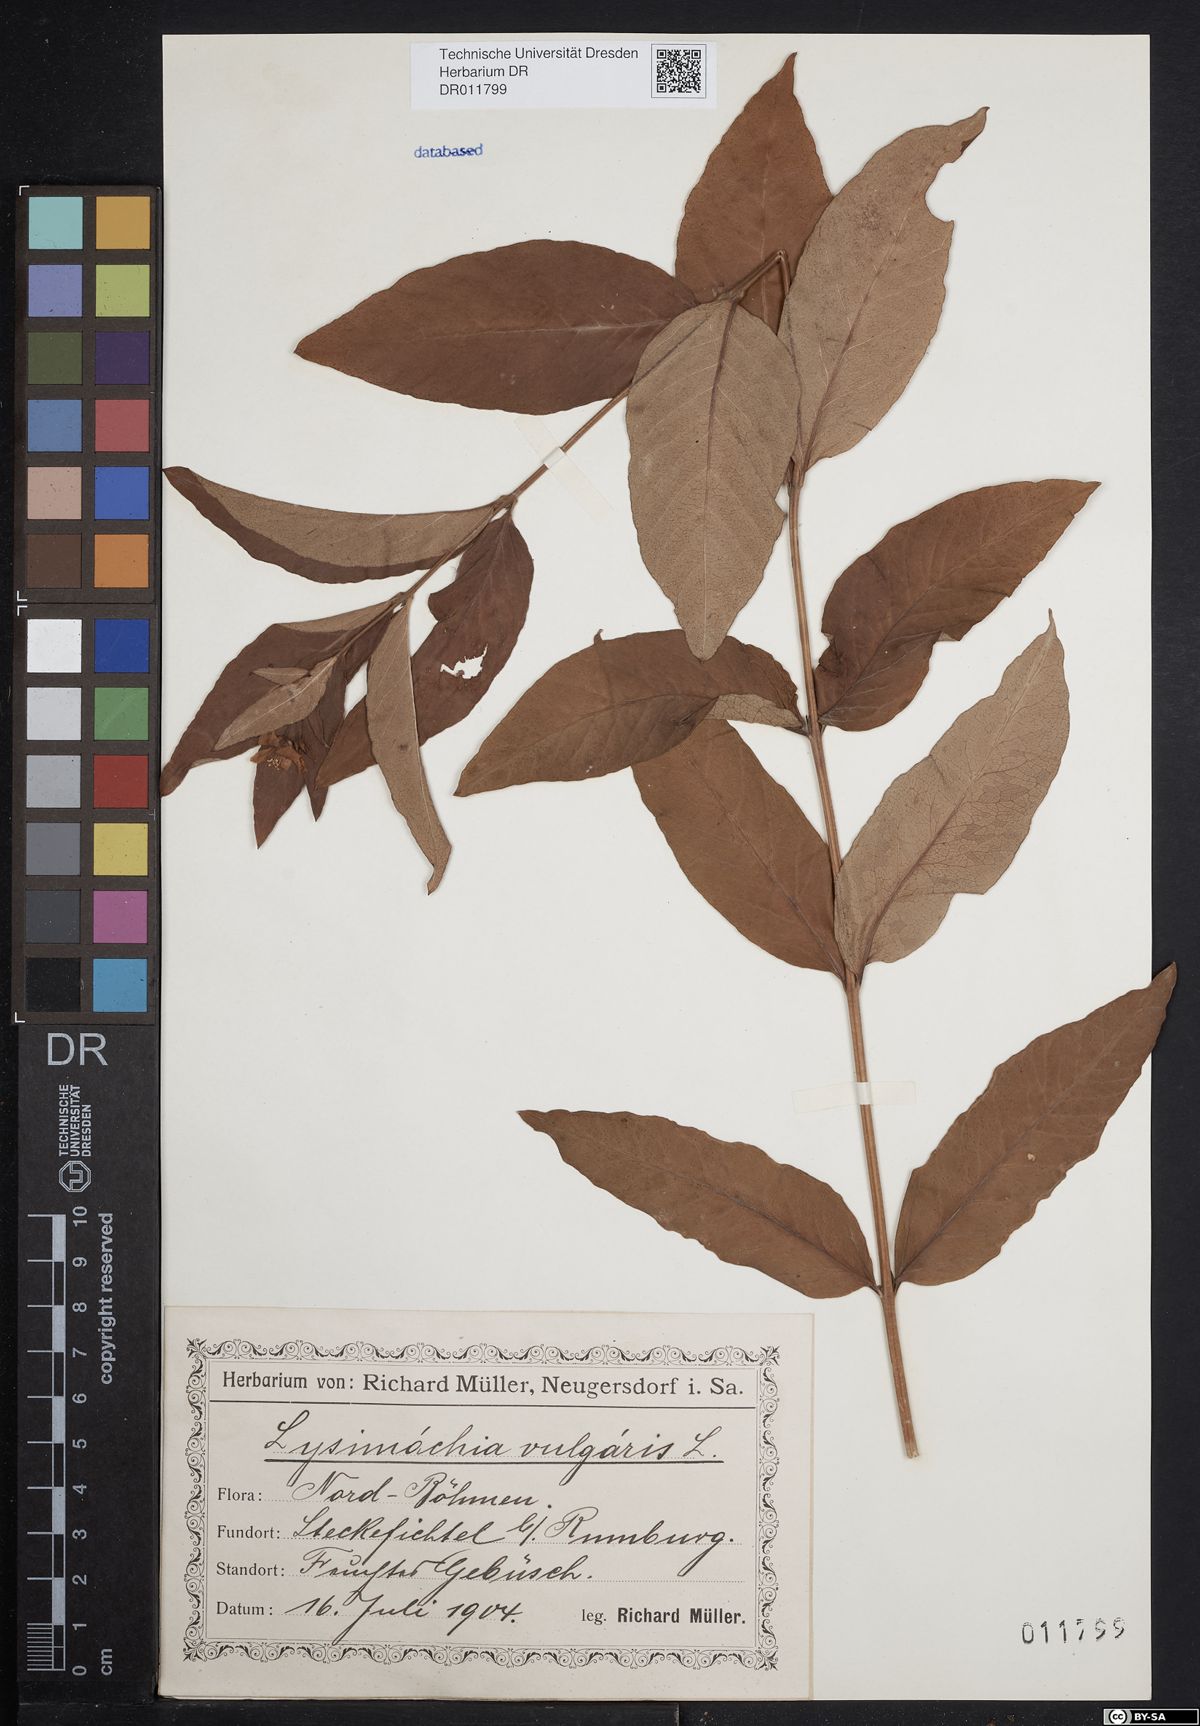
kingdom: Plantae
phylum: Tracheophyta
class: Magnoliopsida
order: Ericales
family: Primulaceae
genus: Lysimachia
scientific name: Lysimachia vulgaris
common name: Yellow loosestrife
